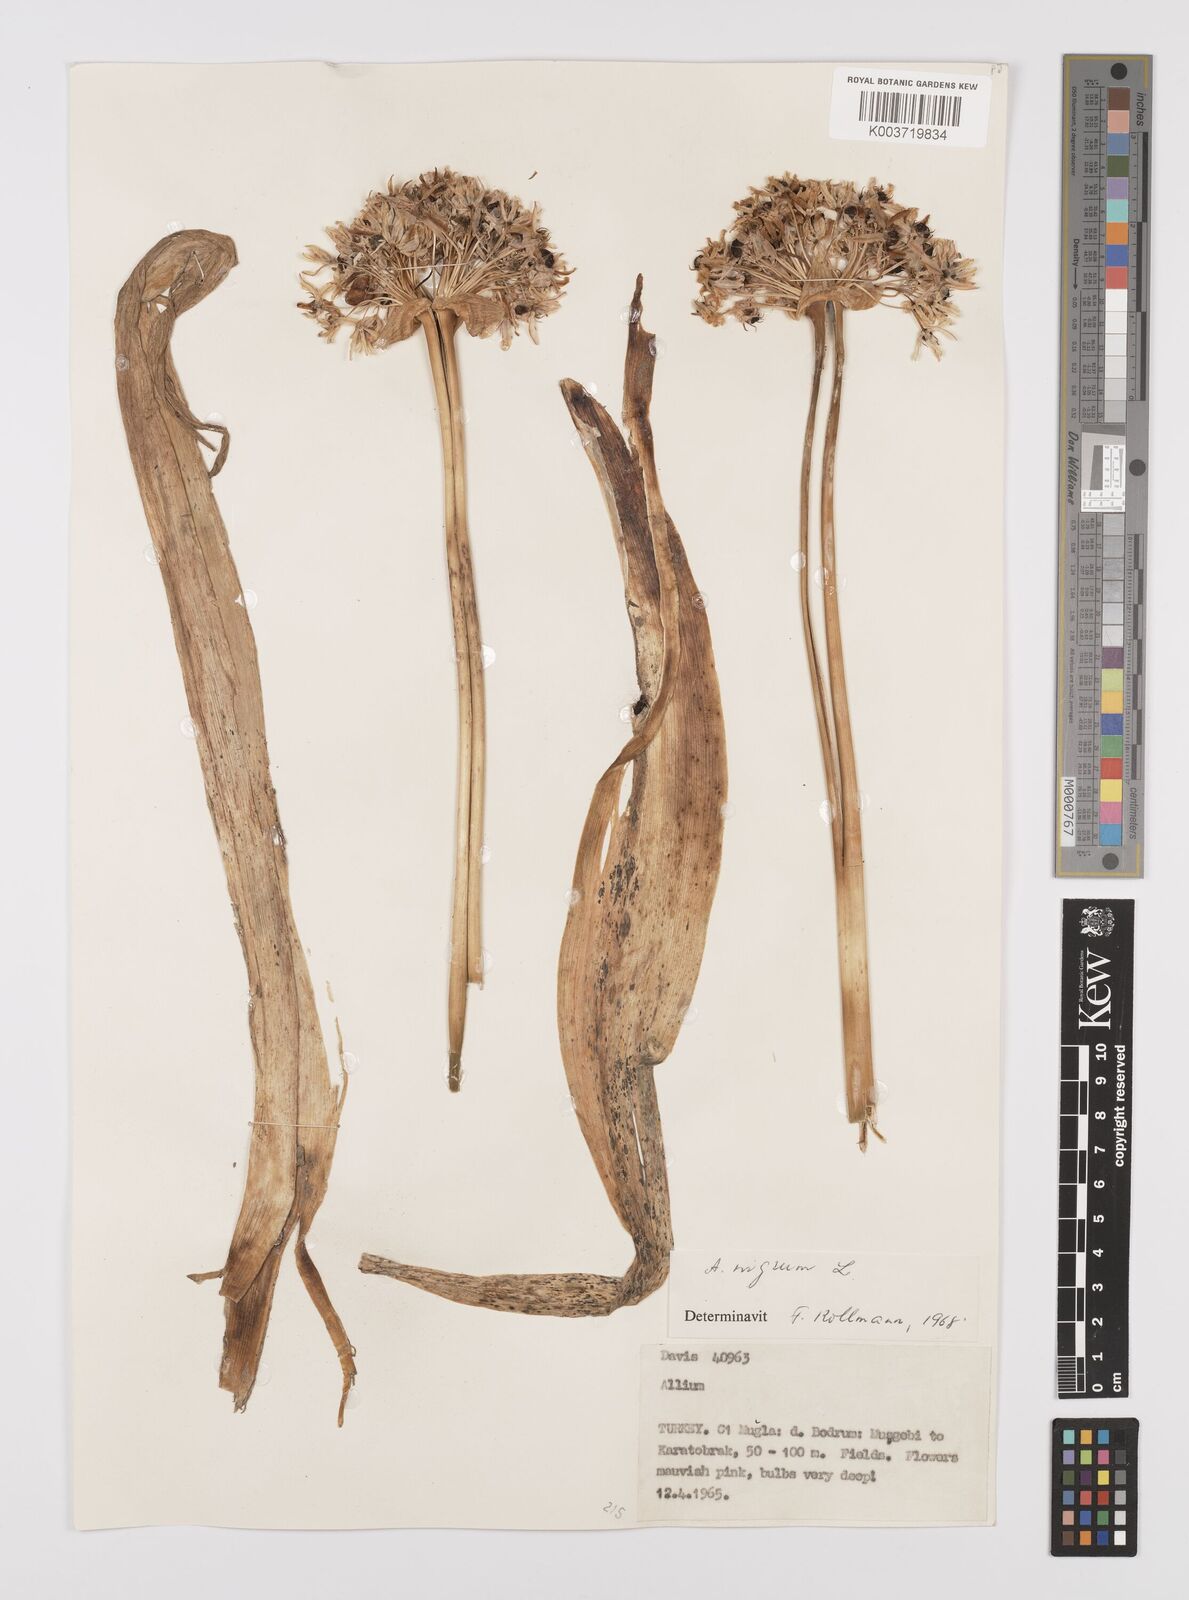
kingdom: Plantae
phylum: Tracheophyta
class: Liliopsida
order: Asparagales
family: Amaryllidaceae
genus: Allium
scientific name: Allium nigrum
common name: Black garlic
